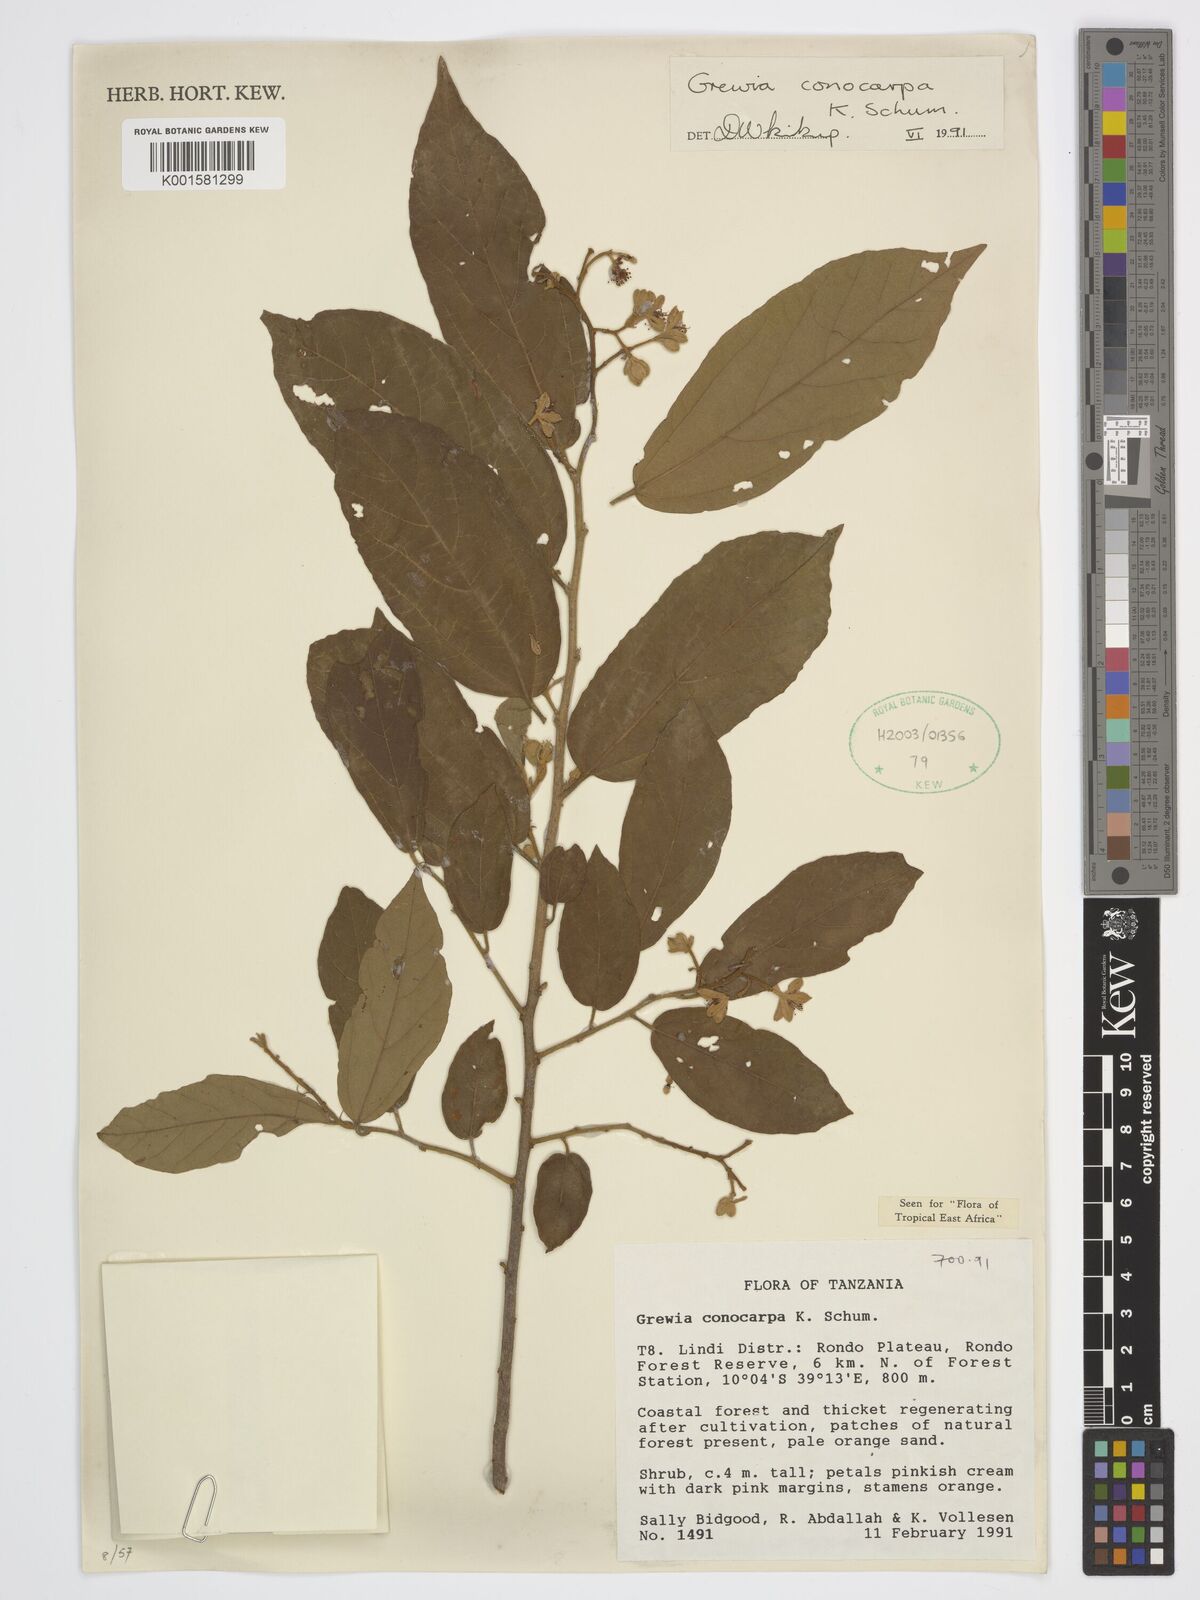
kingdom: Plantae
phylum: Tracheophyta
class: Magnoliopsida
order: Malvales
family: Malvaceae
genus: Microcos
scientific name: Microcos conocarpa
